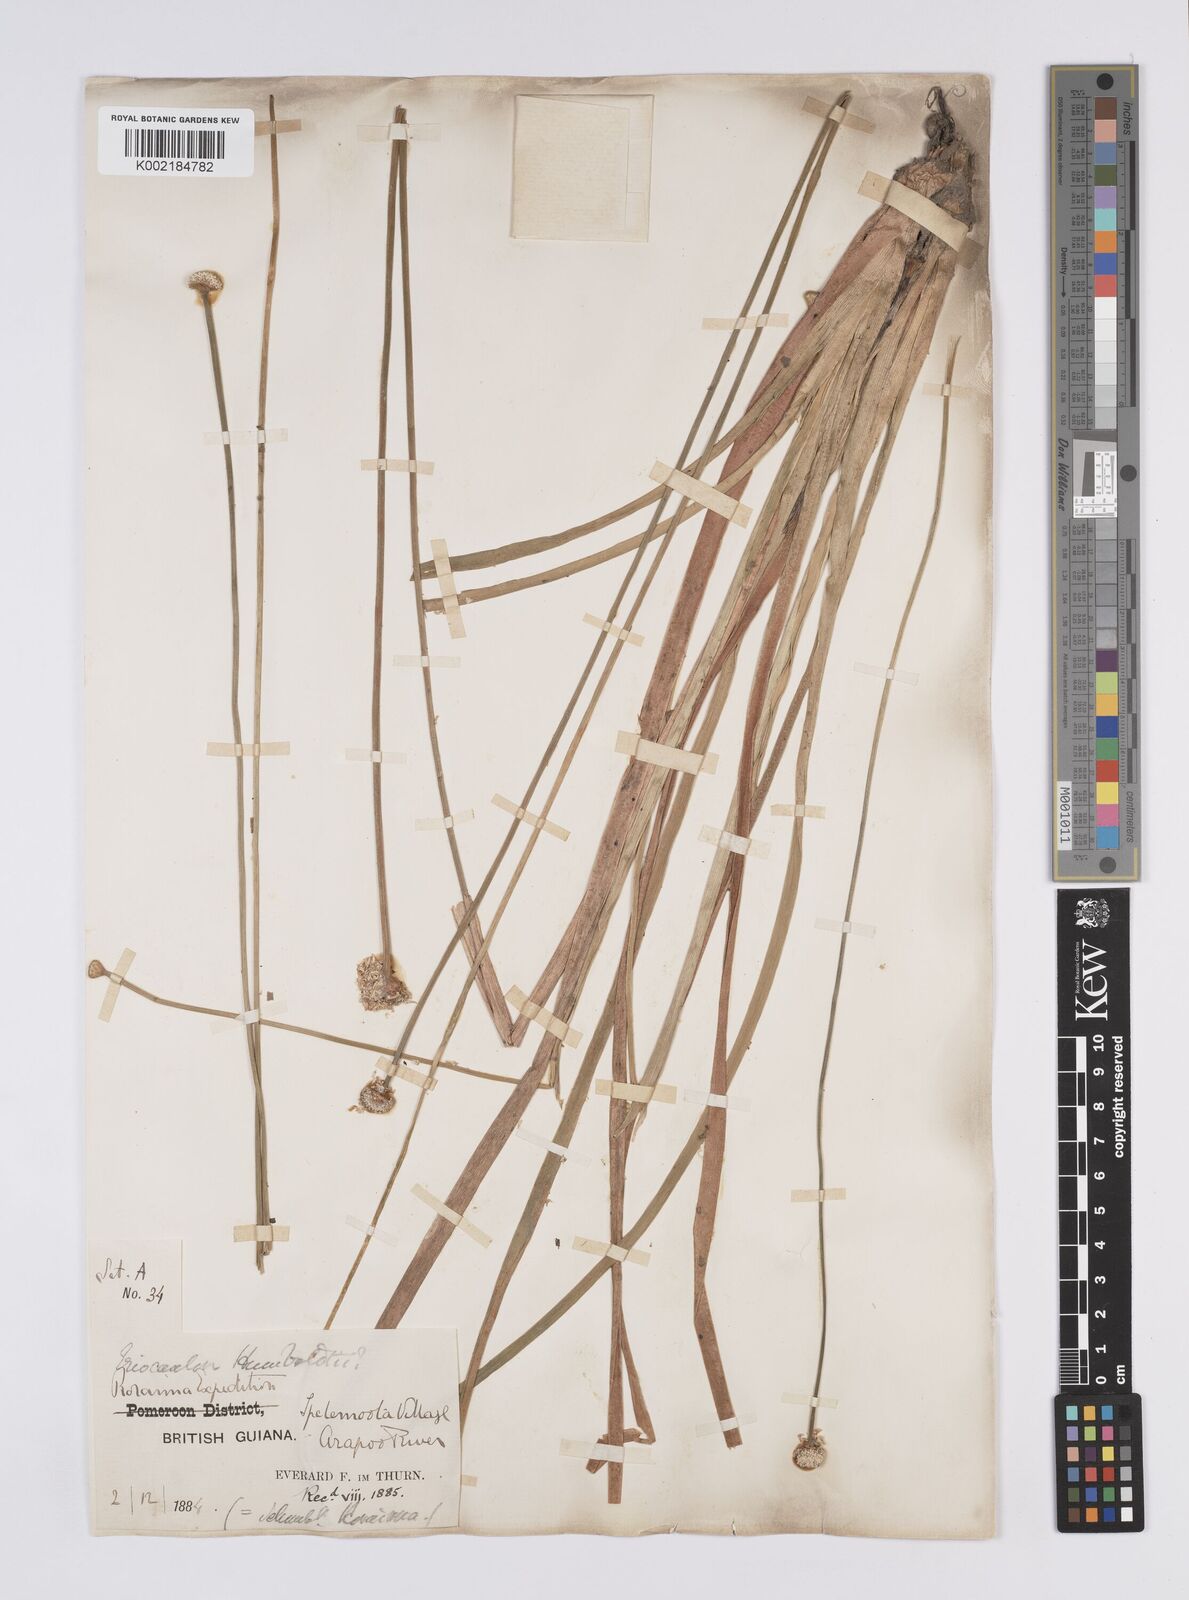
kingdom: Plantae
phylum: Tracheophyta
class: Liliopsida
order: Poales
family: Eriocaulaceae
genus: Eriocaulon
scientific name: Eriocaulon humboldtii
